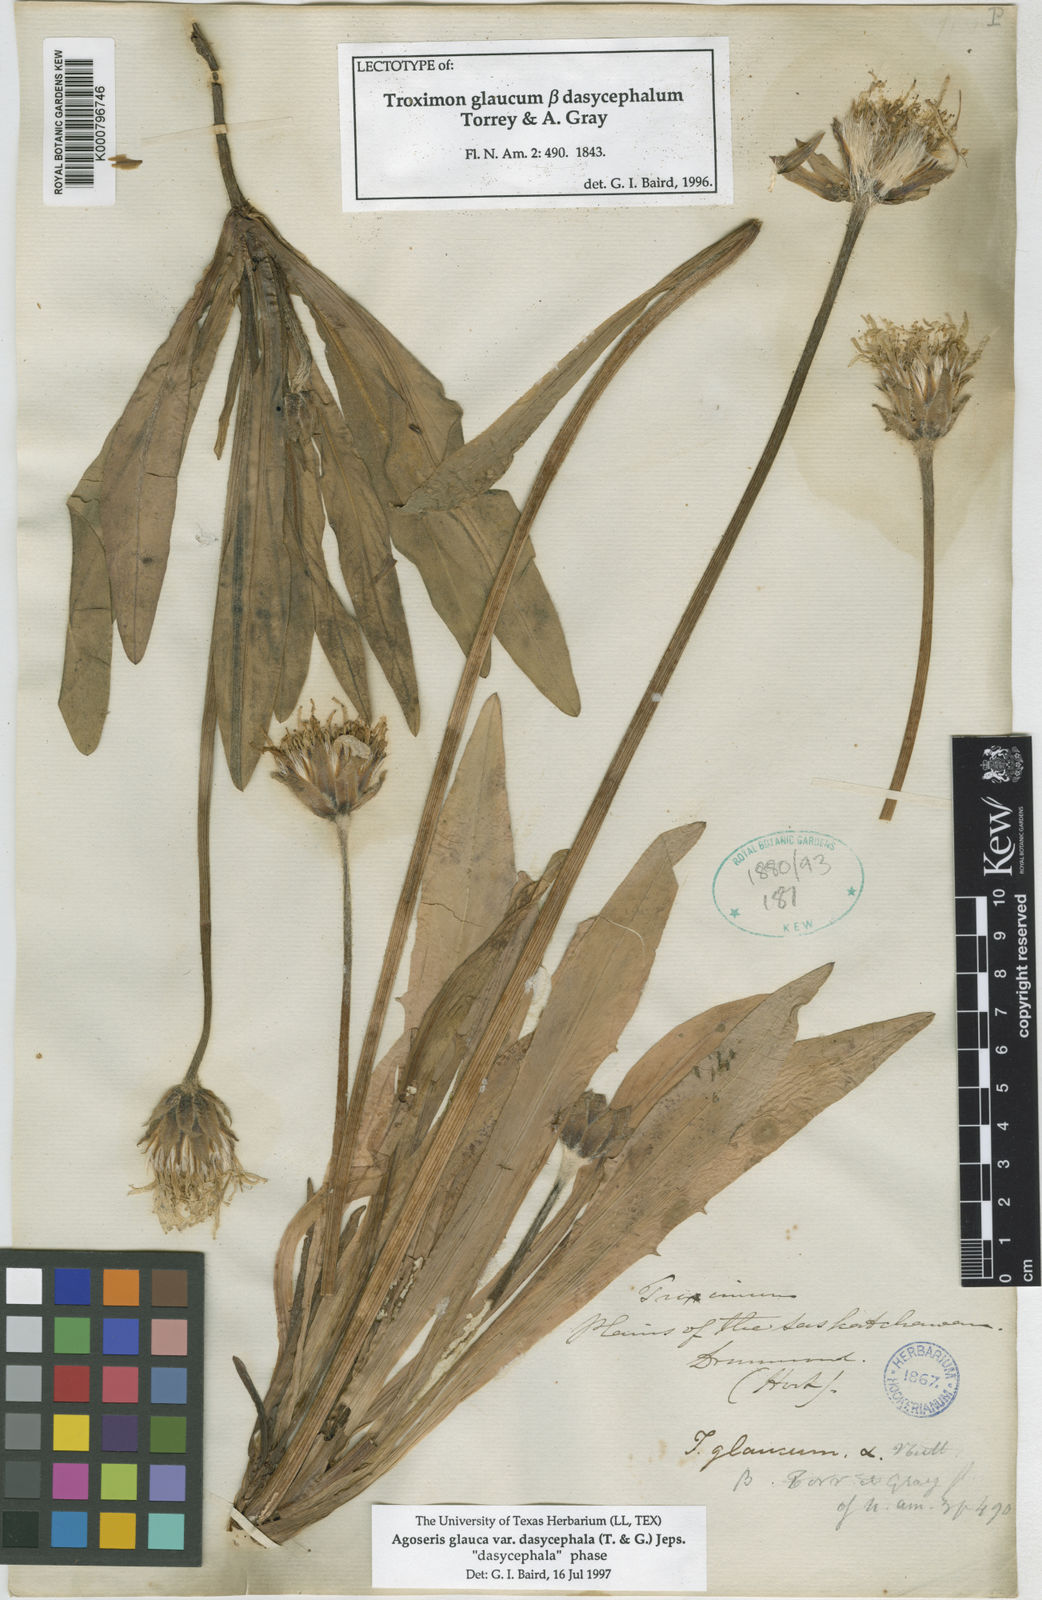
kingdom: Plantae
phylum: Tracheophyta
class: Magnoliopsida
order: Asterales
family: Asteraceae
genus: Agoseris
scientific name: Agoseris glauca
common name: Prairie agoseris
